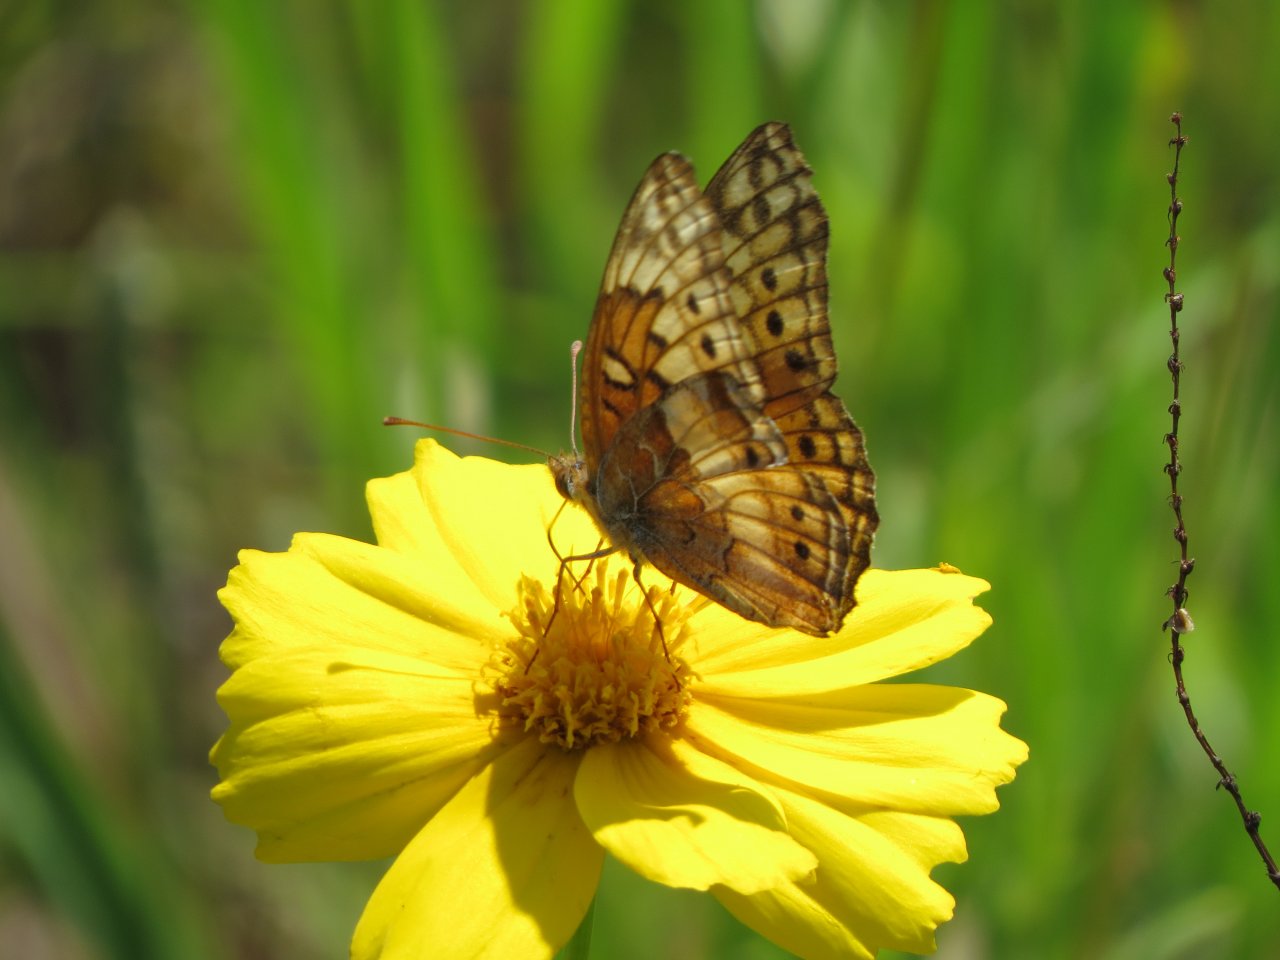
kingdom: Animalia
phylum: Arthropoda
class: Insecta
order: Lepidoptera
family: Nymphalidae
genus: Euptoieta
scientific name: Euptoieta claudia
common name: Variegated Fritillary
